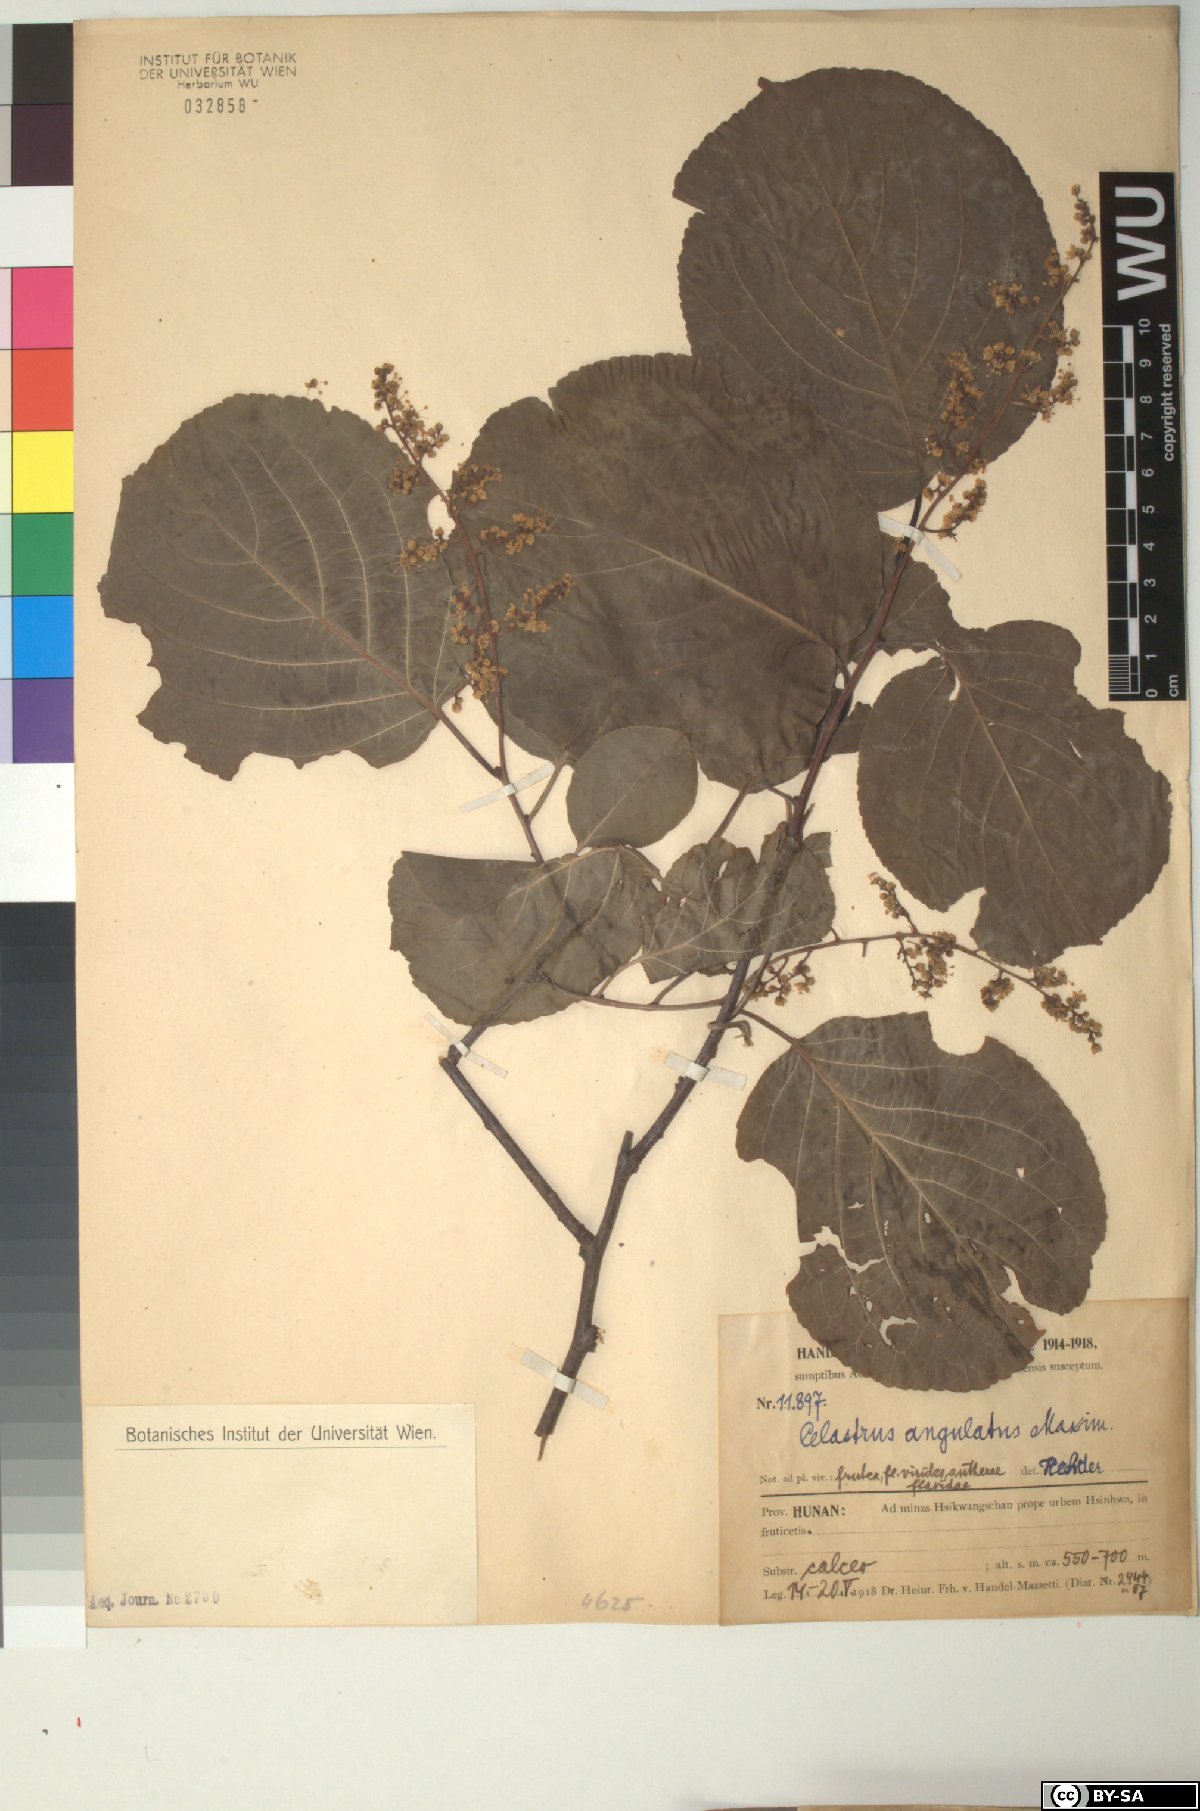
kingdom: Plantae
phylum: Tracheophyta
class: Magnoliopsida
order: Celastrales
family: Celastraceae
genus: Celastrus
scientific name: Celastrus angulatus
